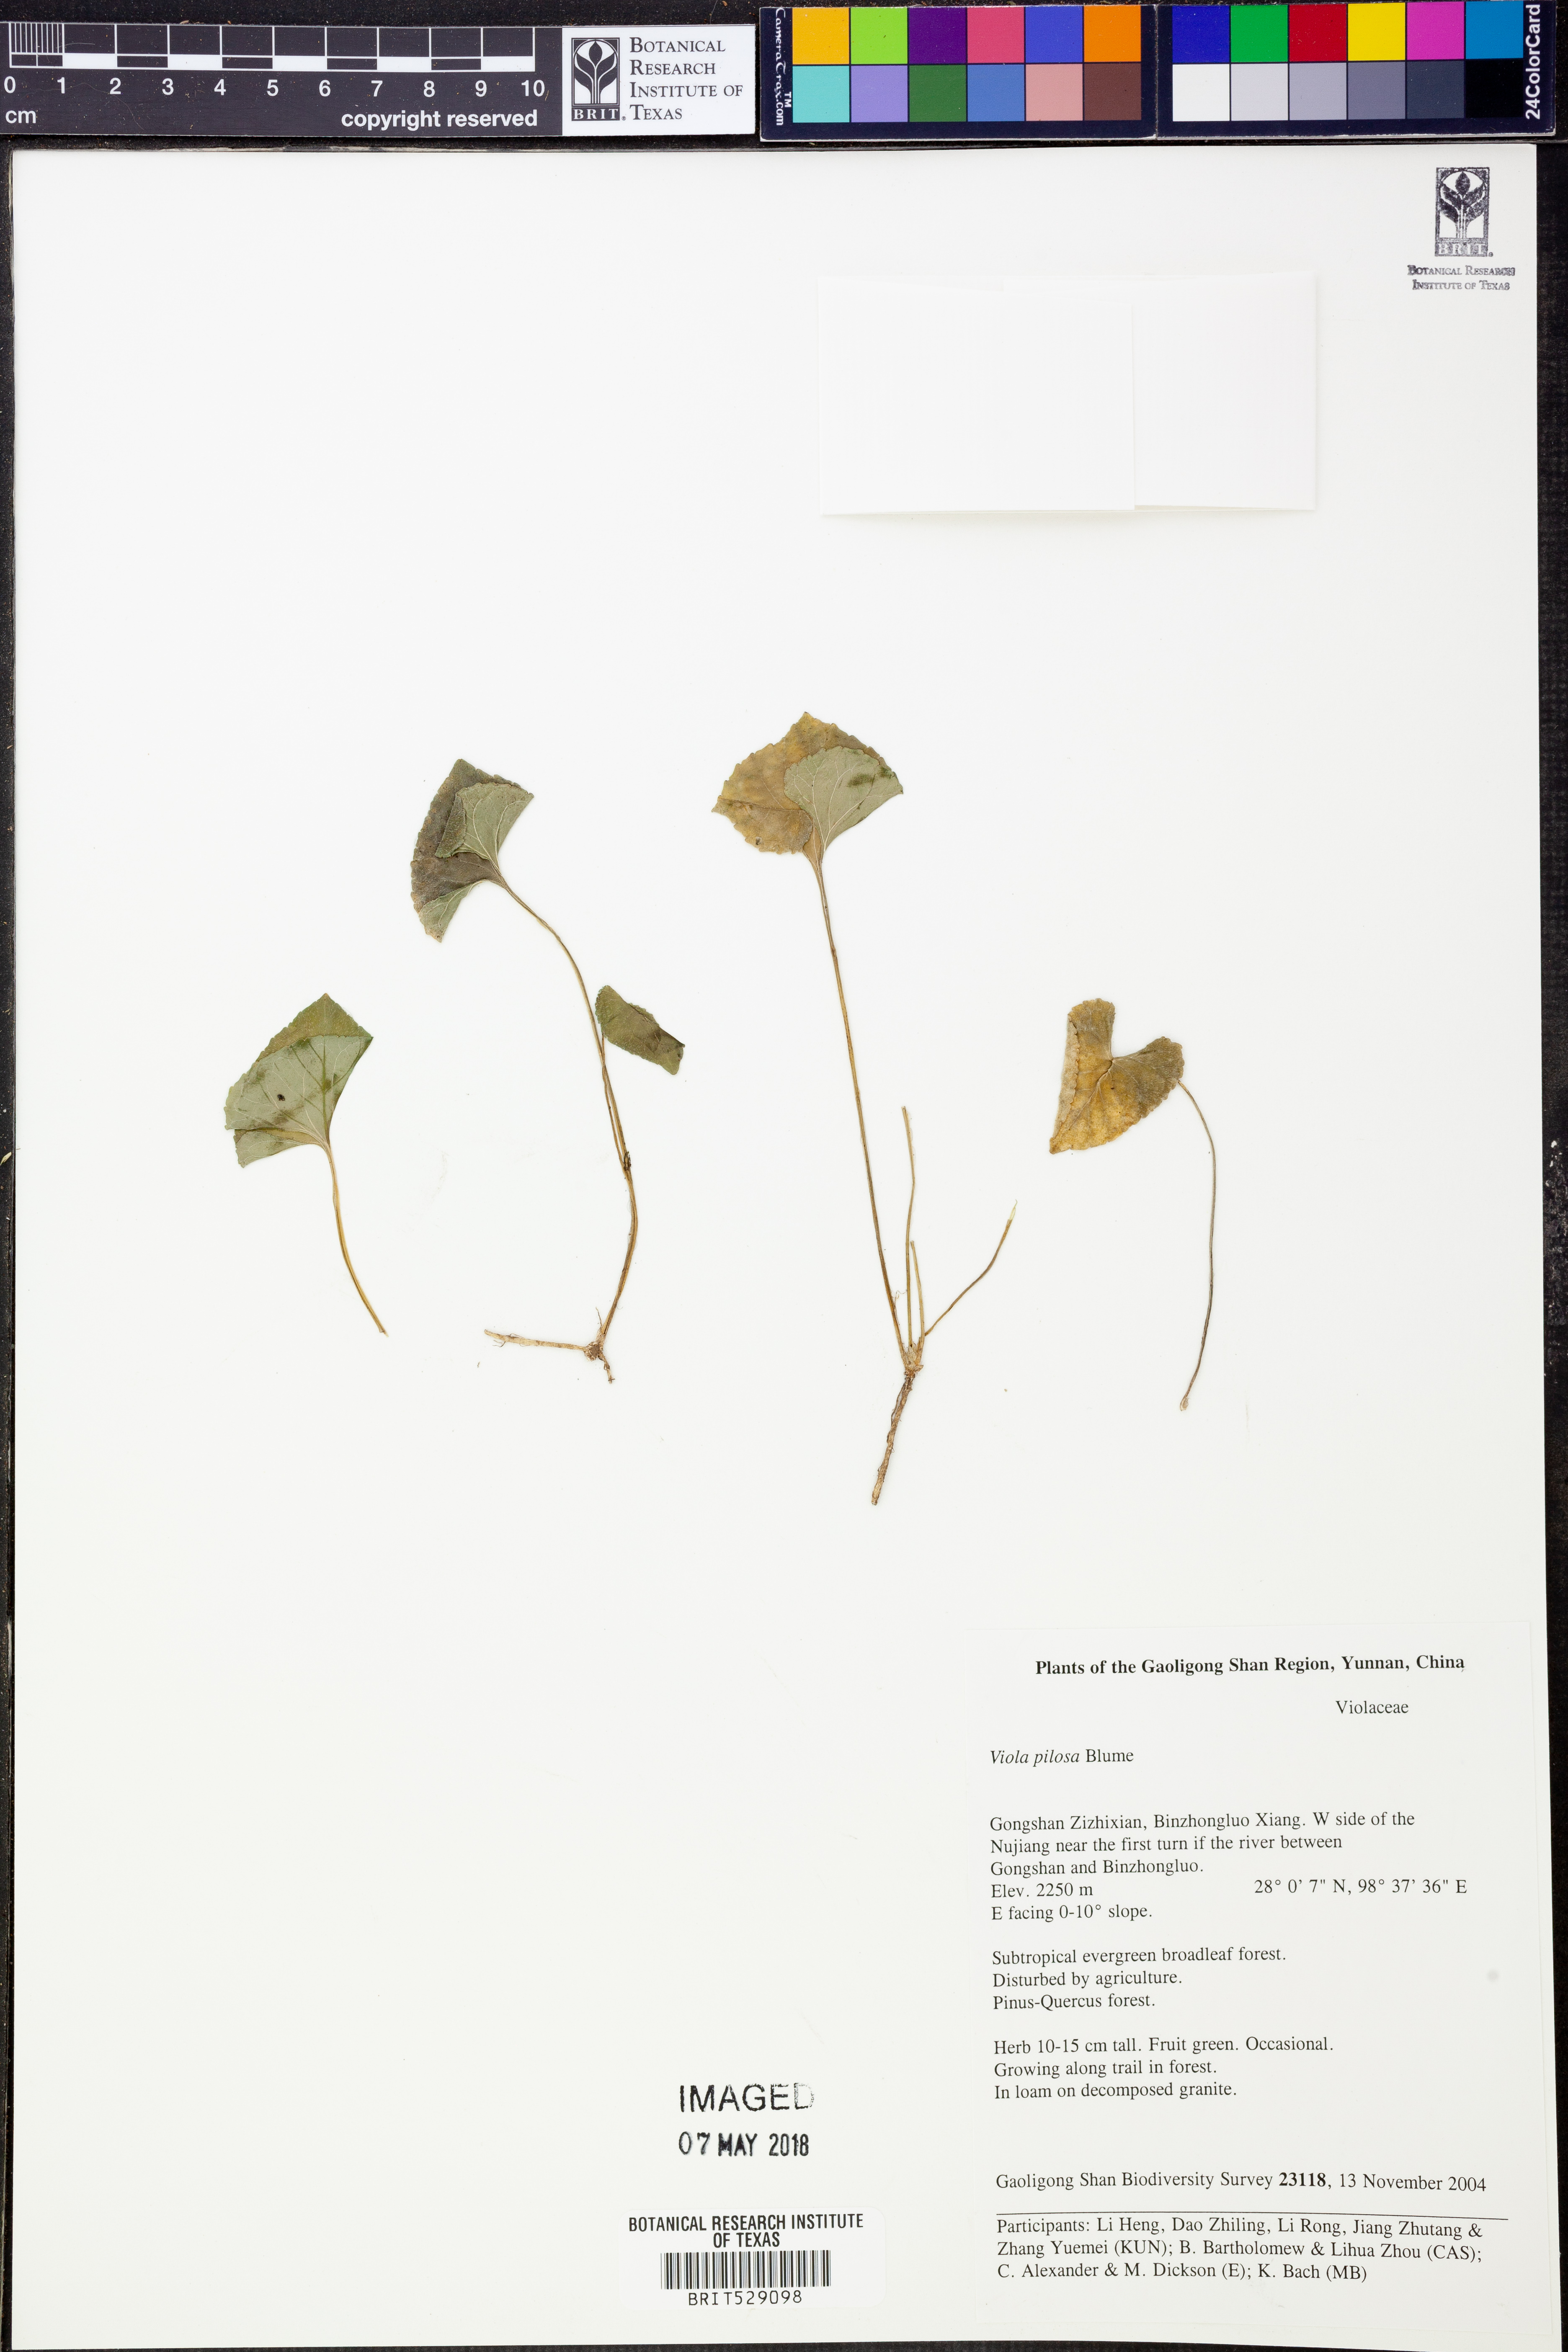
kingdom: Plantae
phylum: Tracheophyta
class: Magnoliopsida
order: Malpighiales
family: Violaceae
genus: Viola
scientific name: Viola pilosa
